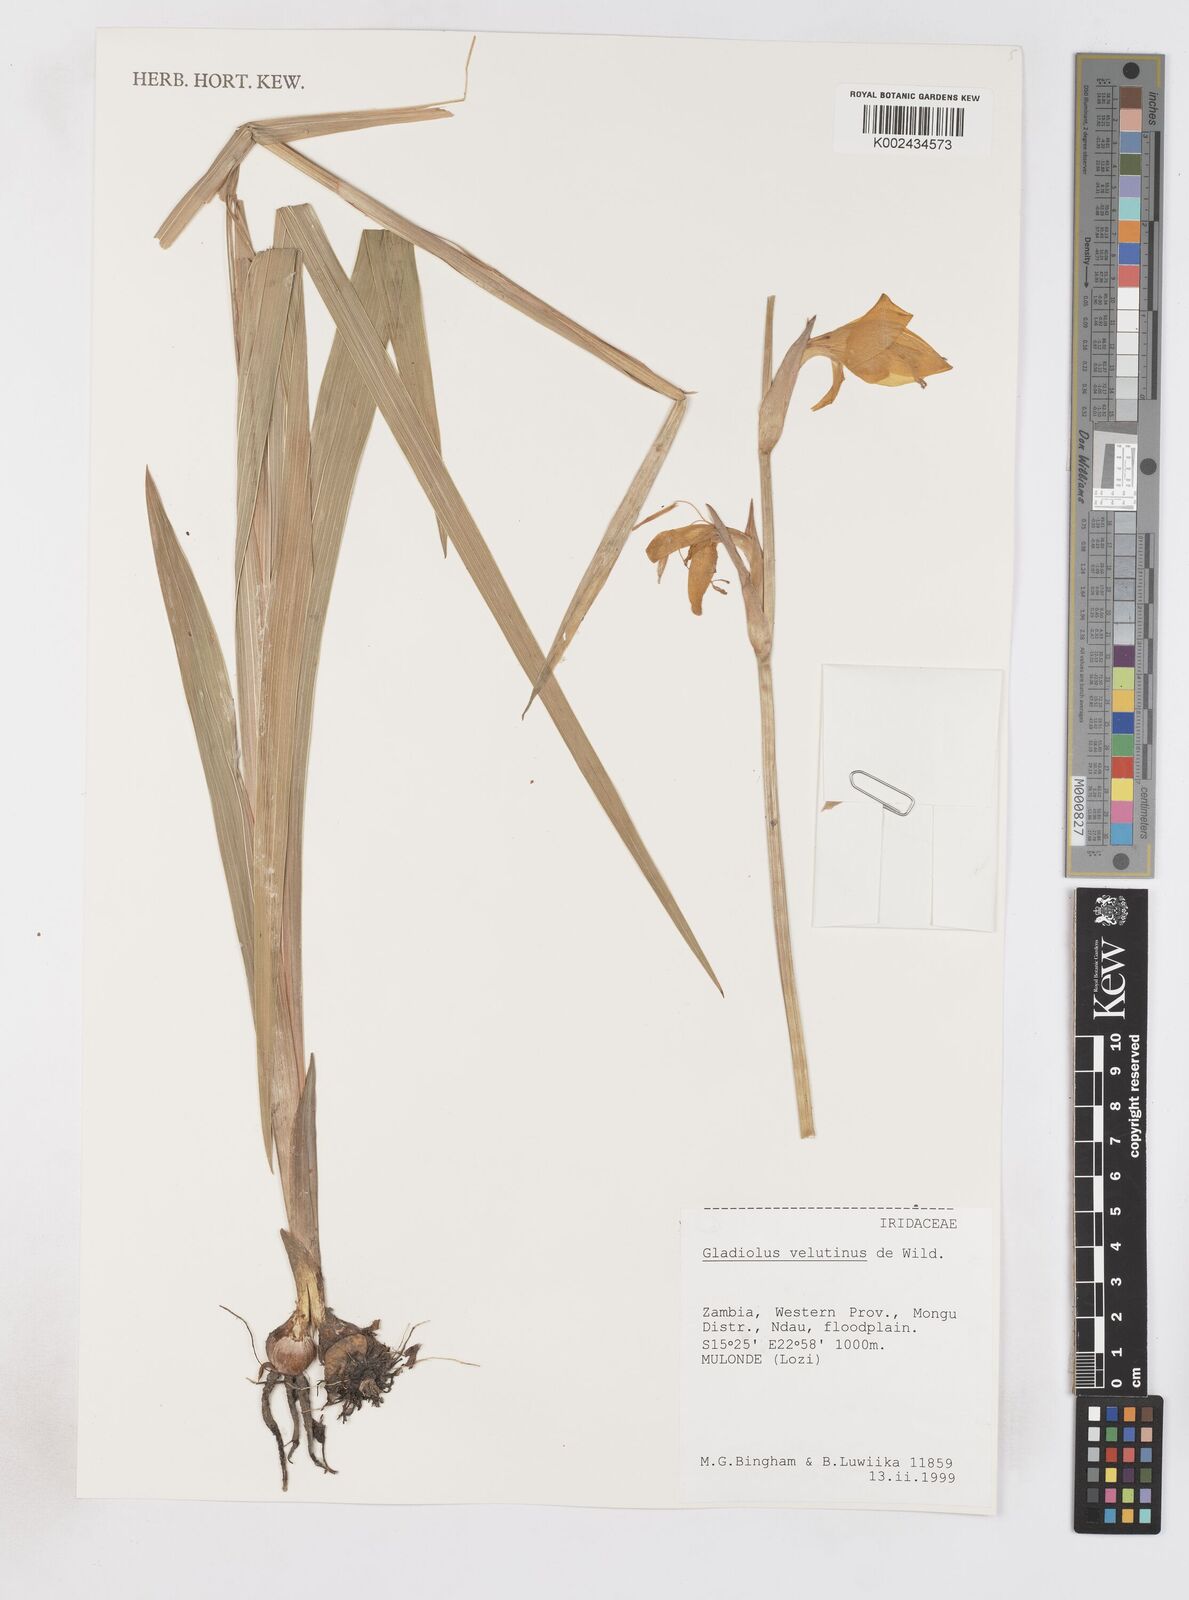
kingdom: Plantae
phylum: Tracheophyta
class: Liliopsida
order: Asparagales
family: Iridaceae
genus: Gladiolus
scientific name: Gladiolus velutinus
